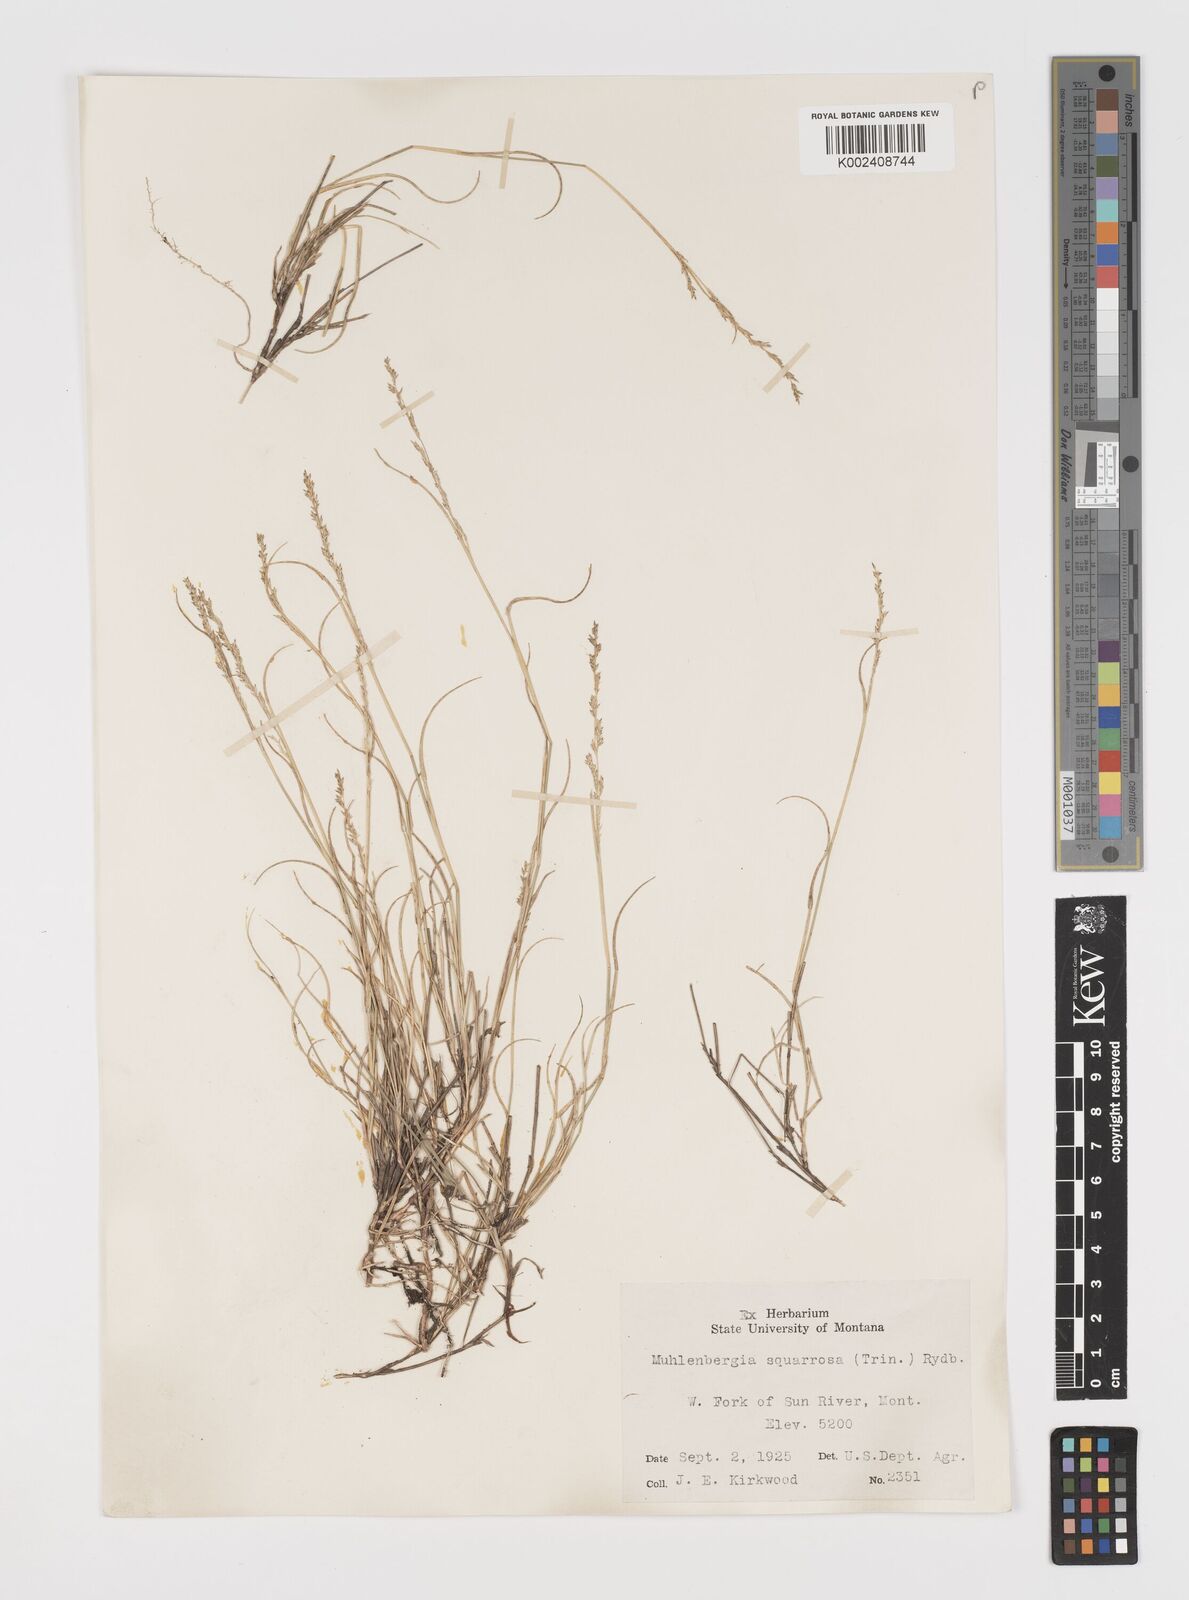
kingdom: Plantae
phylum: Tracheophyta
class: Liliopsida
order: Poales
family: Poaceae
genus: Muhlenbergia
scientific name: Muhlenbergia richardsonis
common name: Mat muhly
